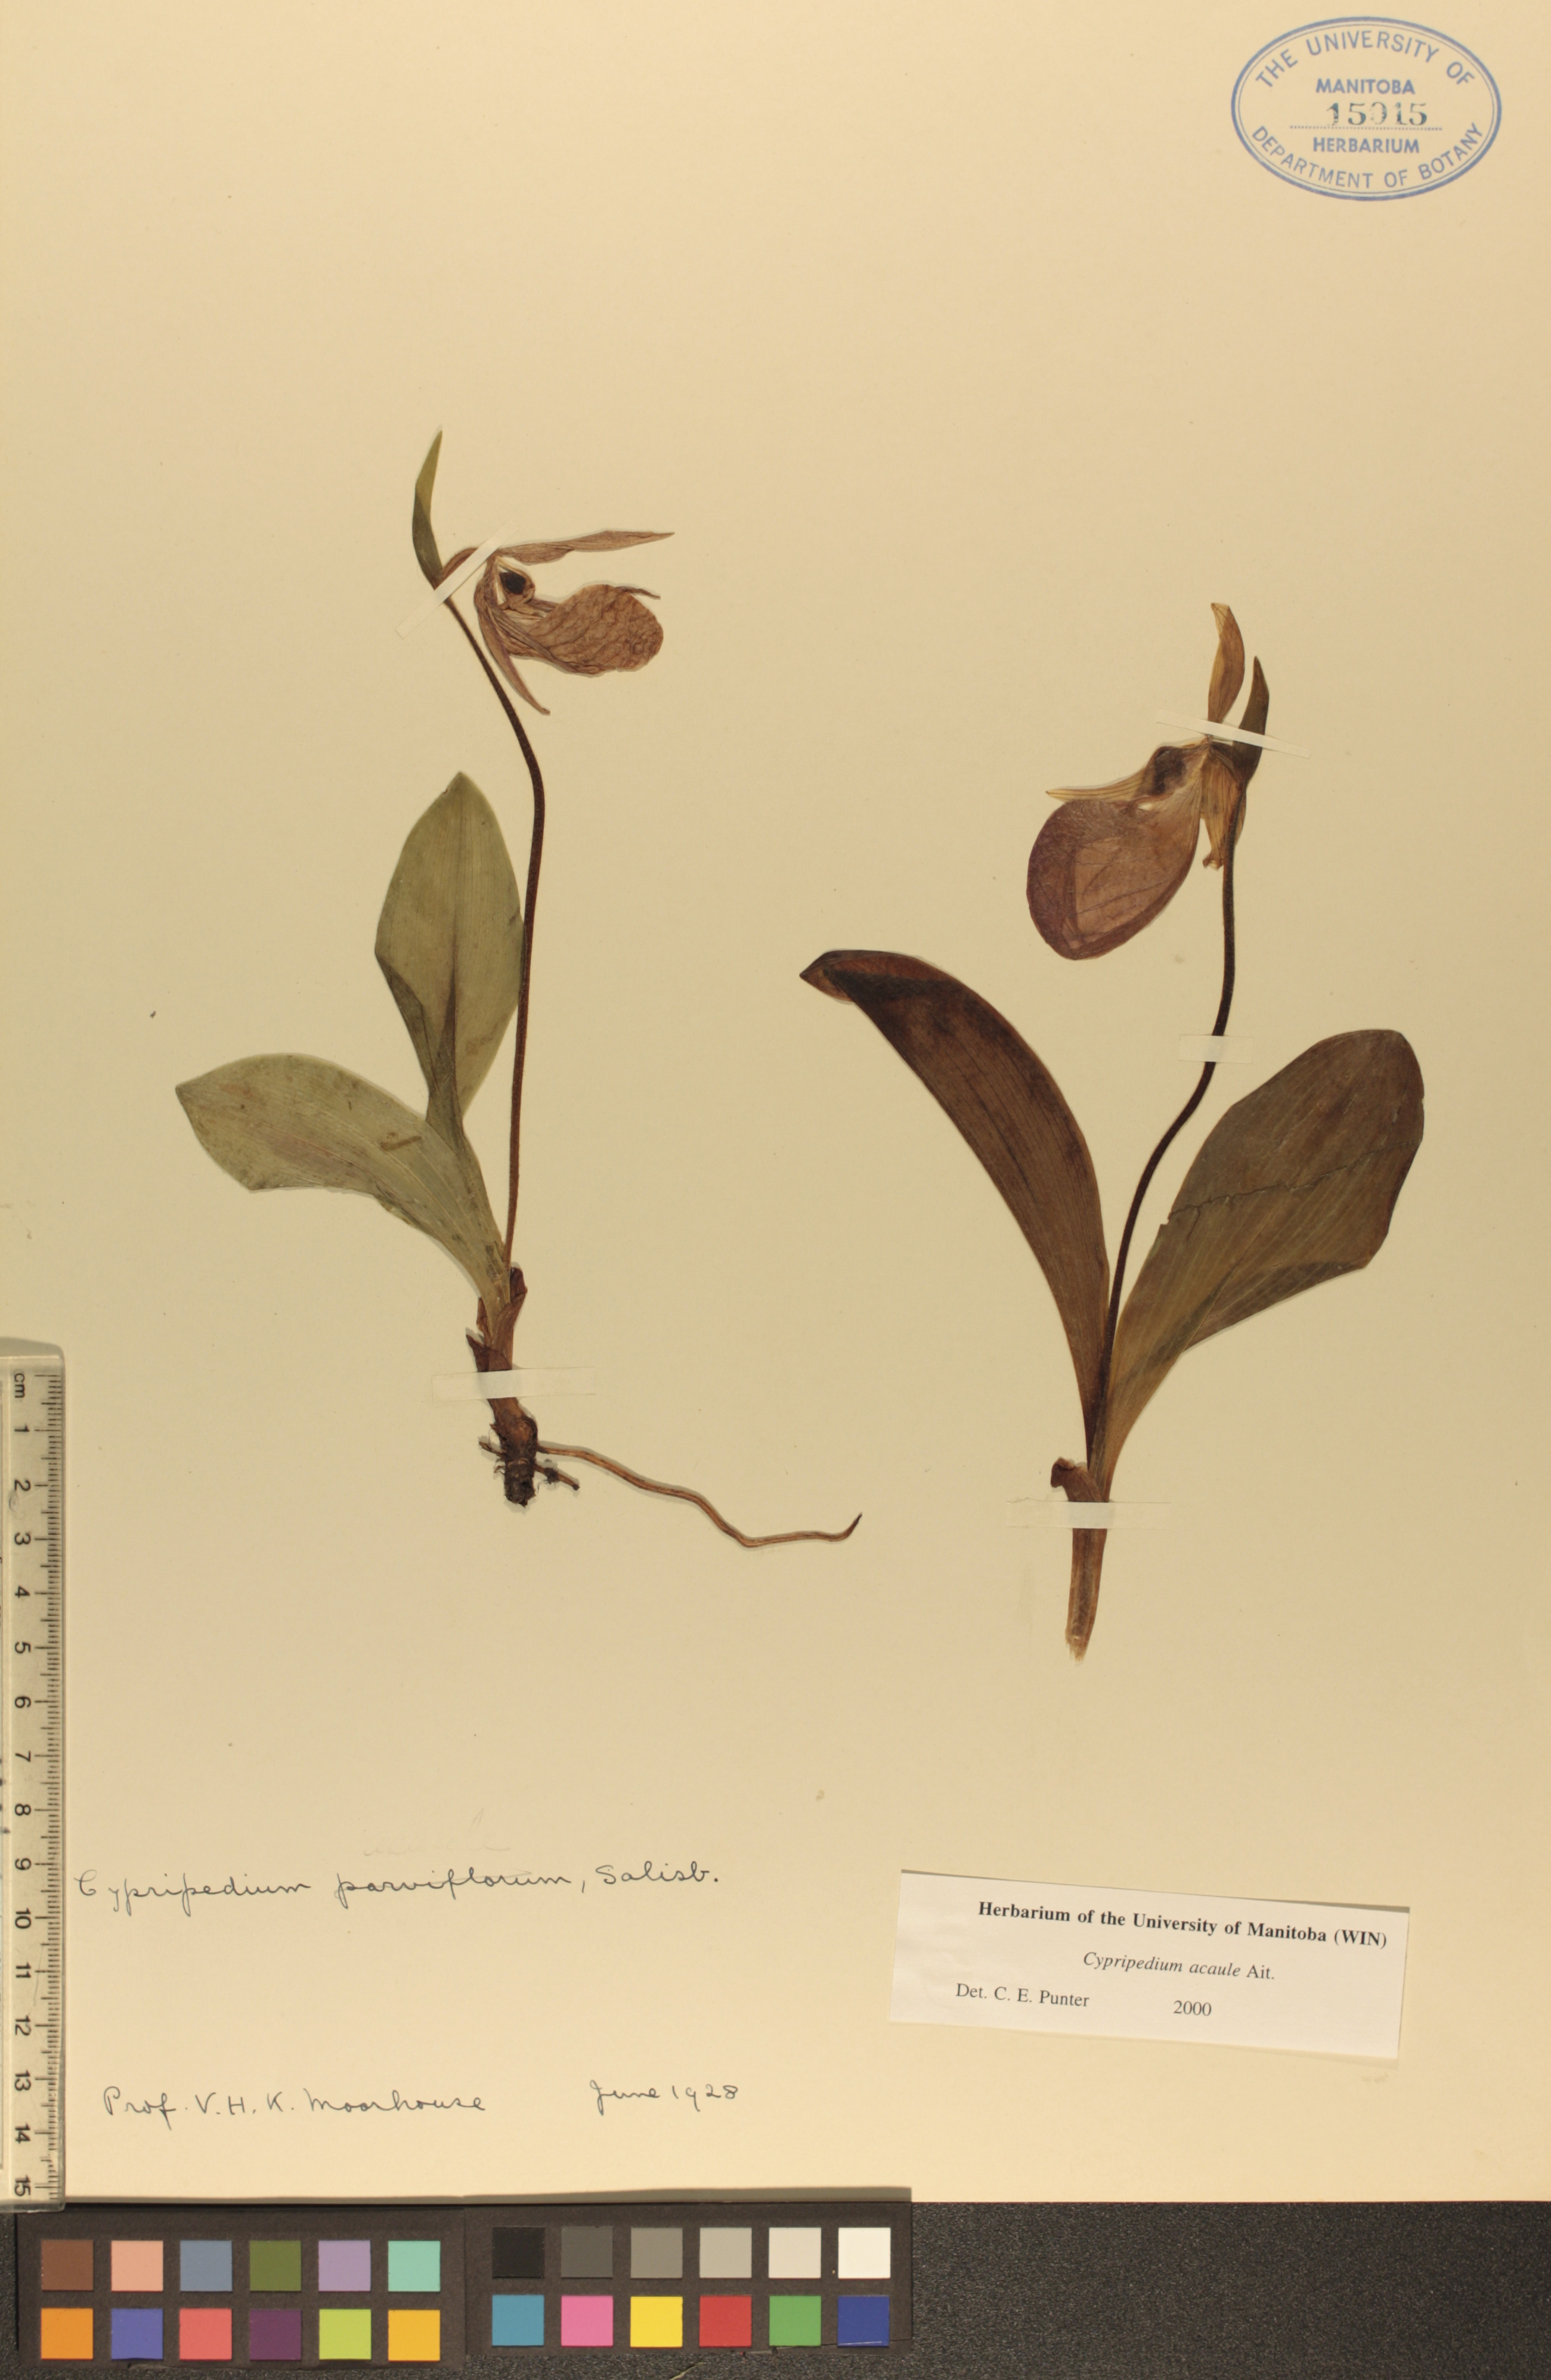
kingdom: Plantae
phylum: Tracheophyta
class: Liliopsida
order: Asparagales
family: Orchidaceae
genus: Cypripedium
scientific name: Cypripedium acaule
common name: Pink lady's-slipper
